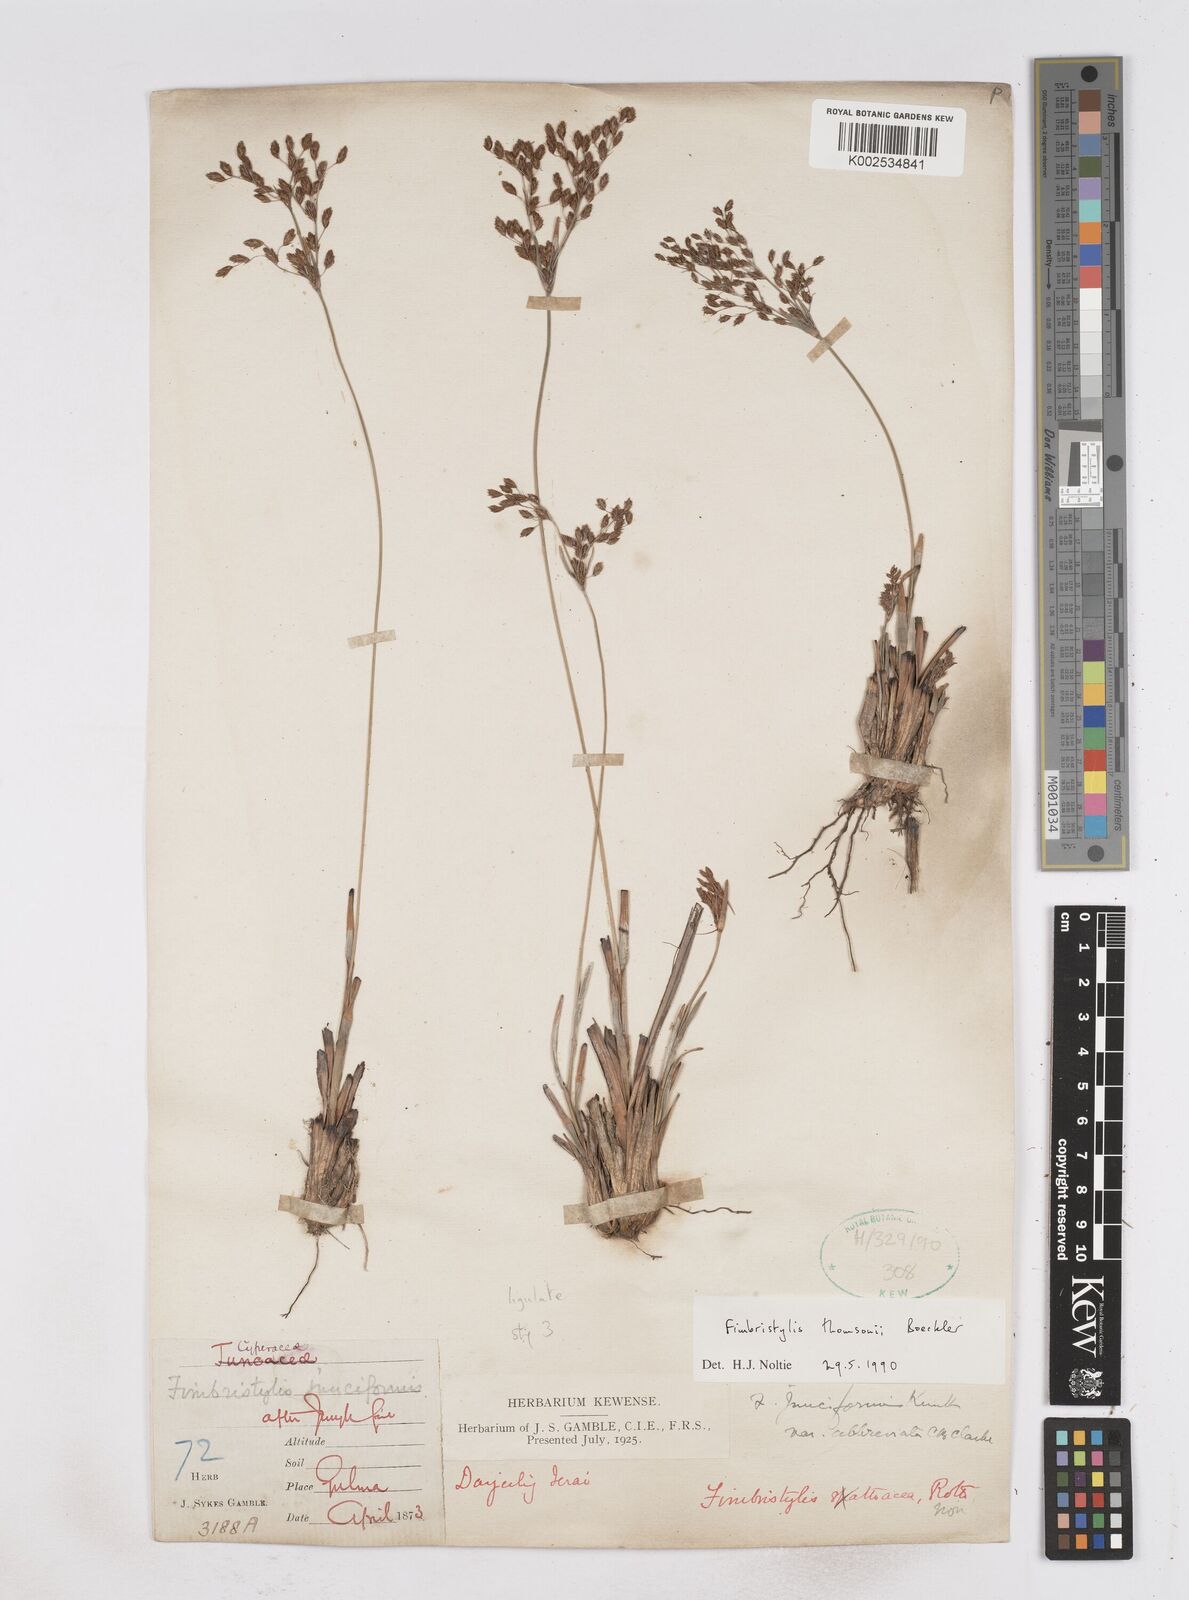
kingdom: Plantae
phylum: Tracheophyta
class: Liliopsida
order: Poales
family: Cyperaceae
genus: Fimbristylis
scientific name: Fimbristylis thomsonii
